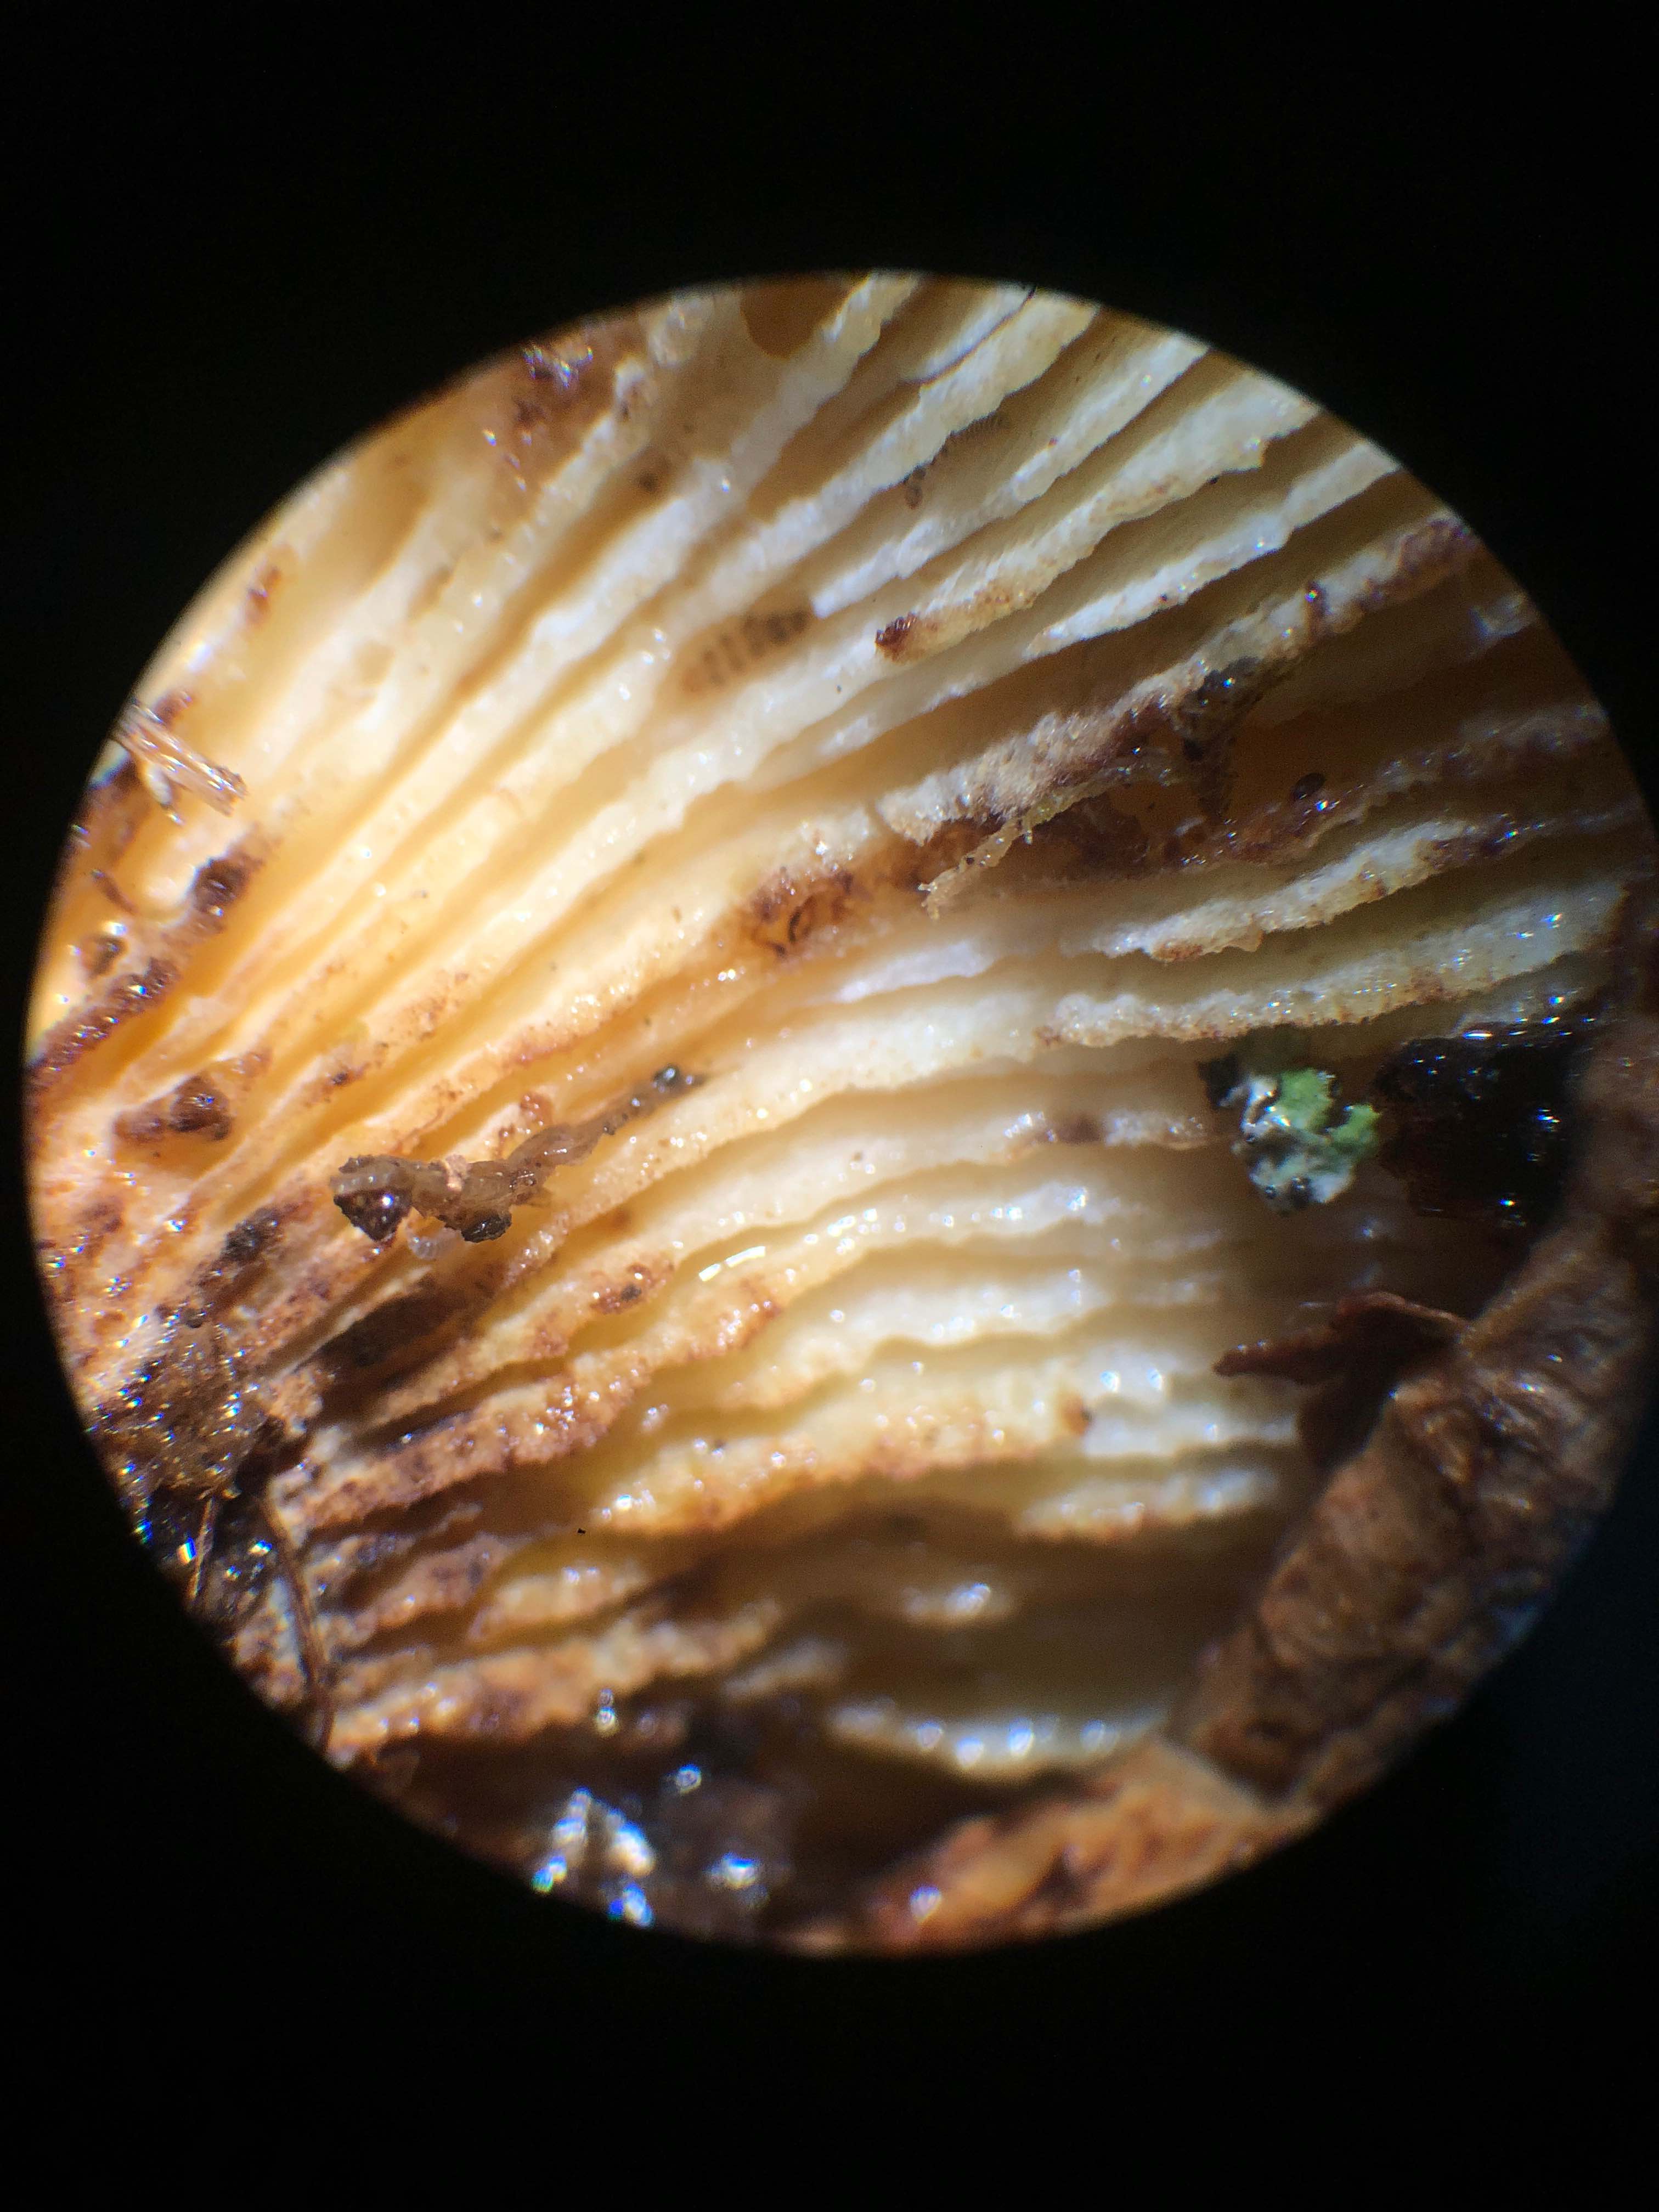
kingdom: Fungi
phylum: Basidiomycota
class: Agaricomycetes
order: Gloeophyllales
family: Gloeophyllaceae
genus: Neolentinus
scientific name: Neolentinus lepideus
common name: skællet sejhat
